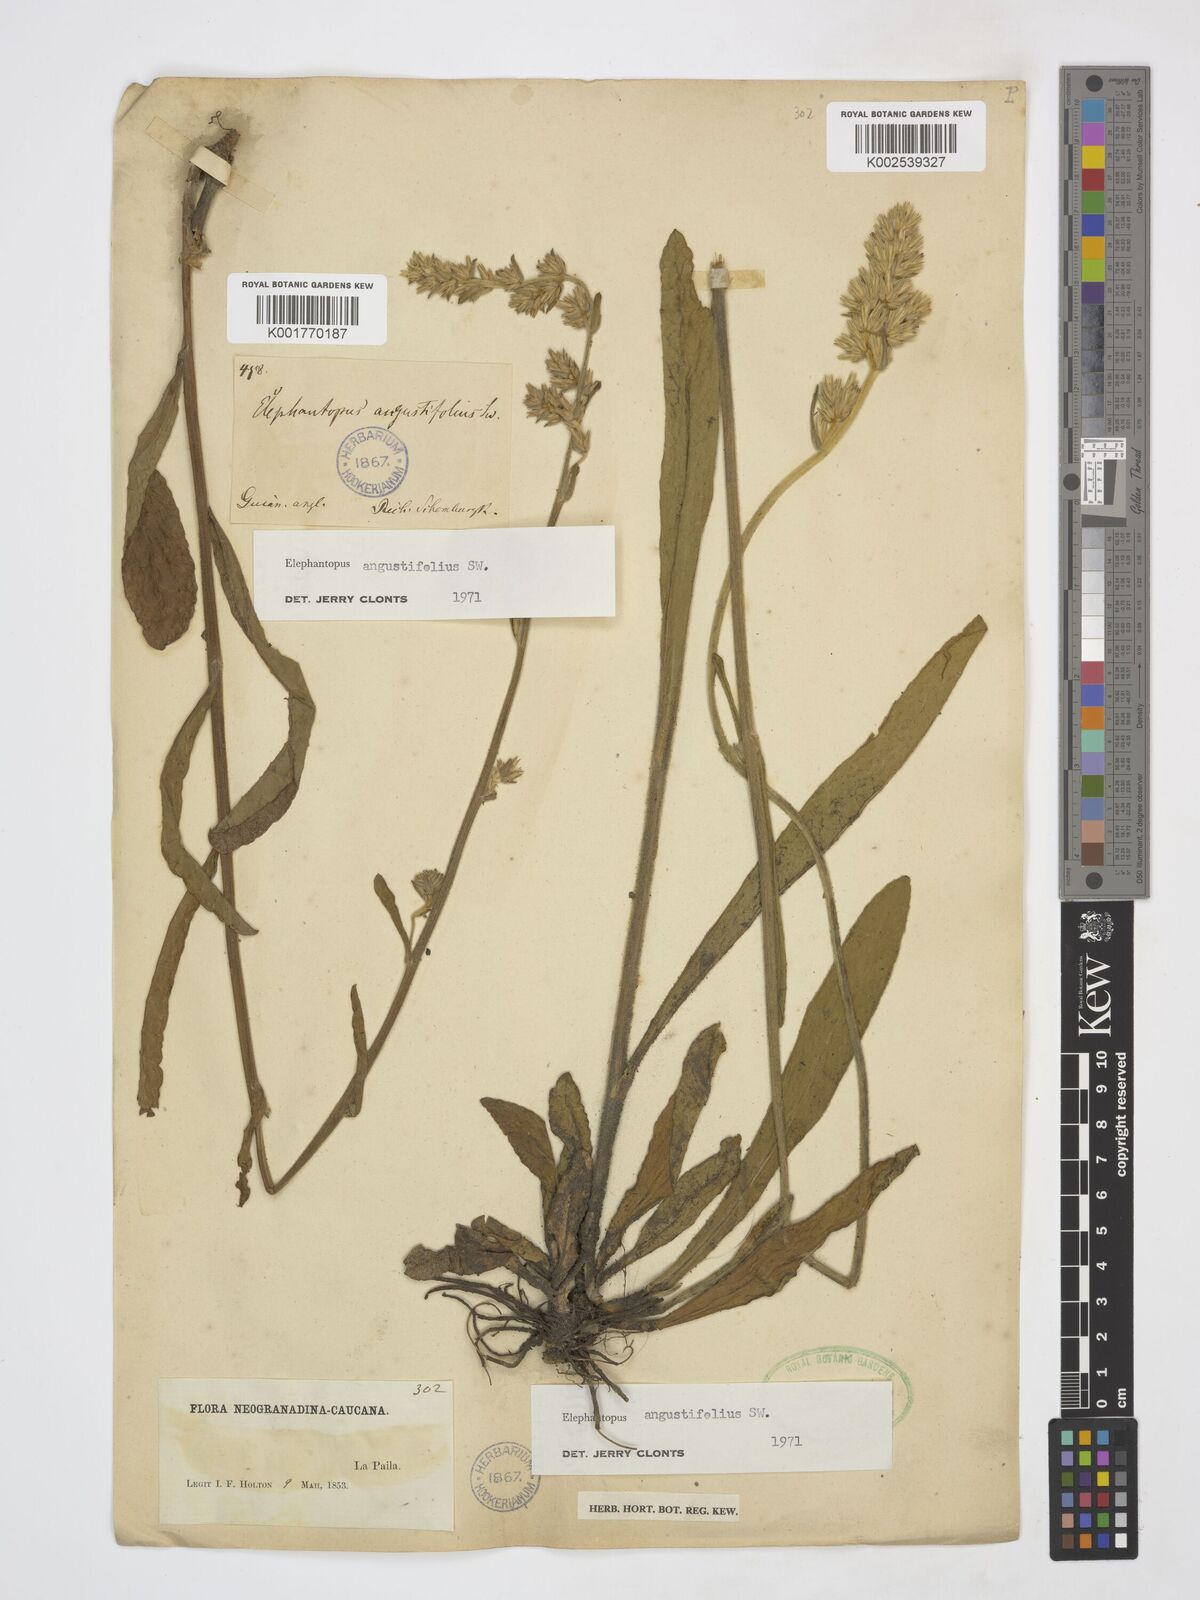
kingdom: Plantae
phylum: Tracheophyta
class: Magnoliopsida
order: Asterales
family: Asteraceae
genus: Orthopappus
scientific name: Orthopappus angustifolius
